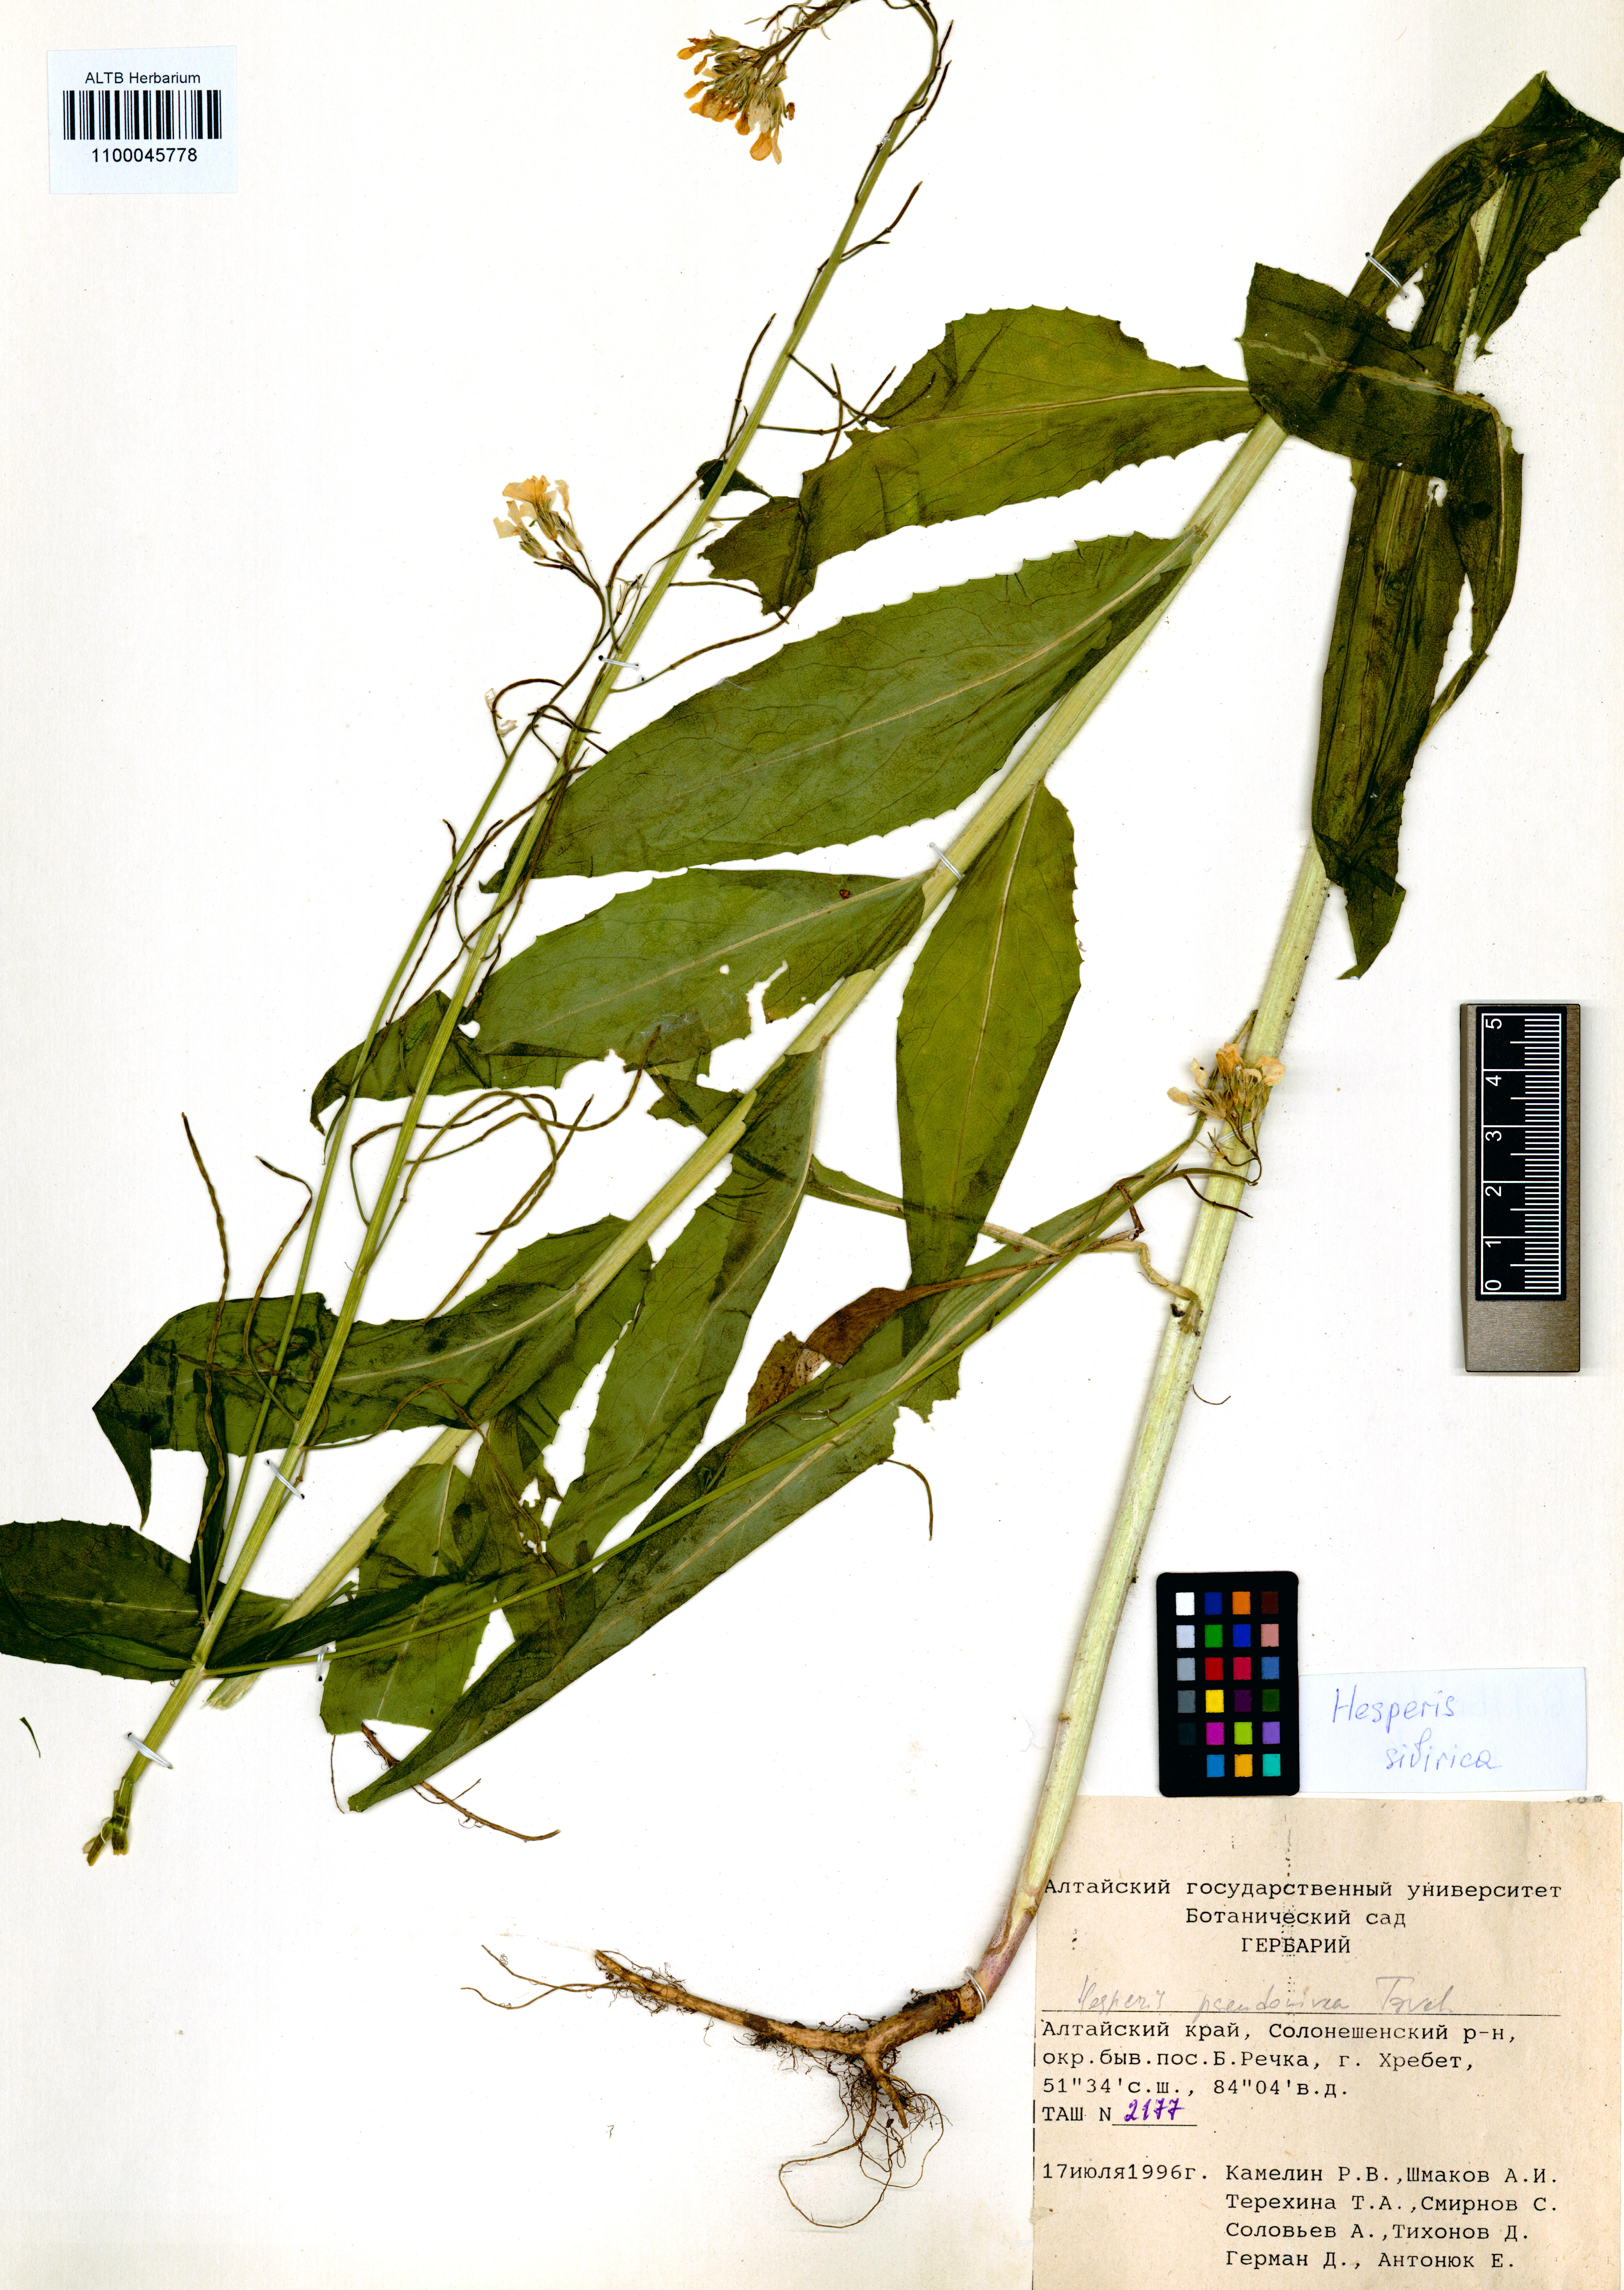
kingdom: Plantae
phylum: Tracheophyta
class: Magnoliopsida
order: Brassicales
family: Brassicaceae
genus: Hesperis
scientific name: Hesperis sibirica
